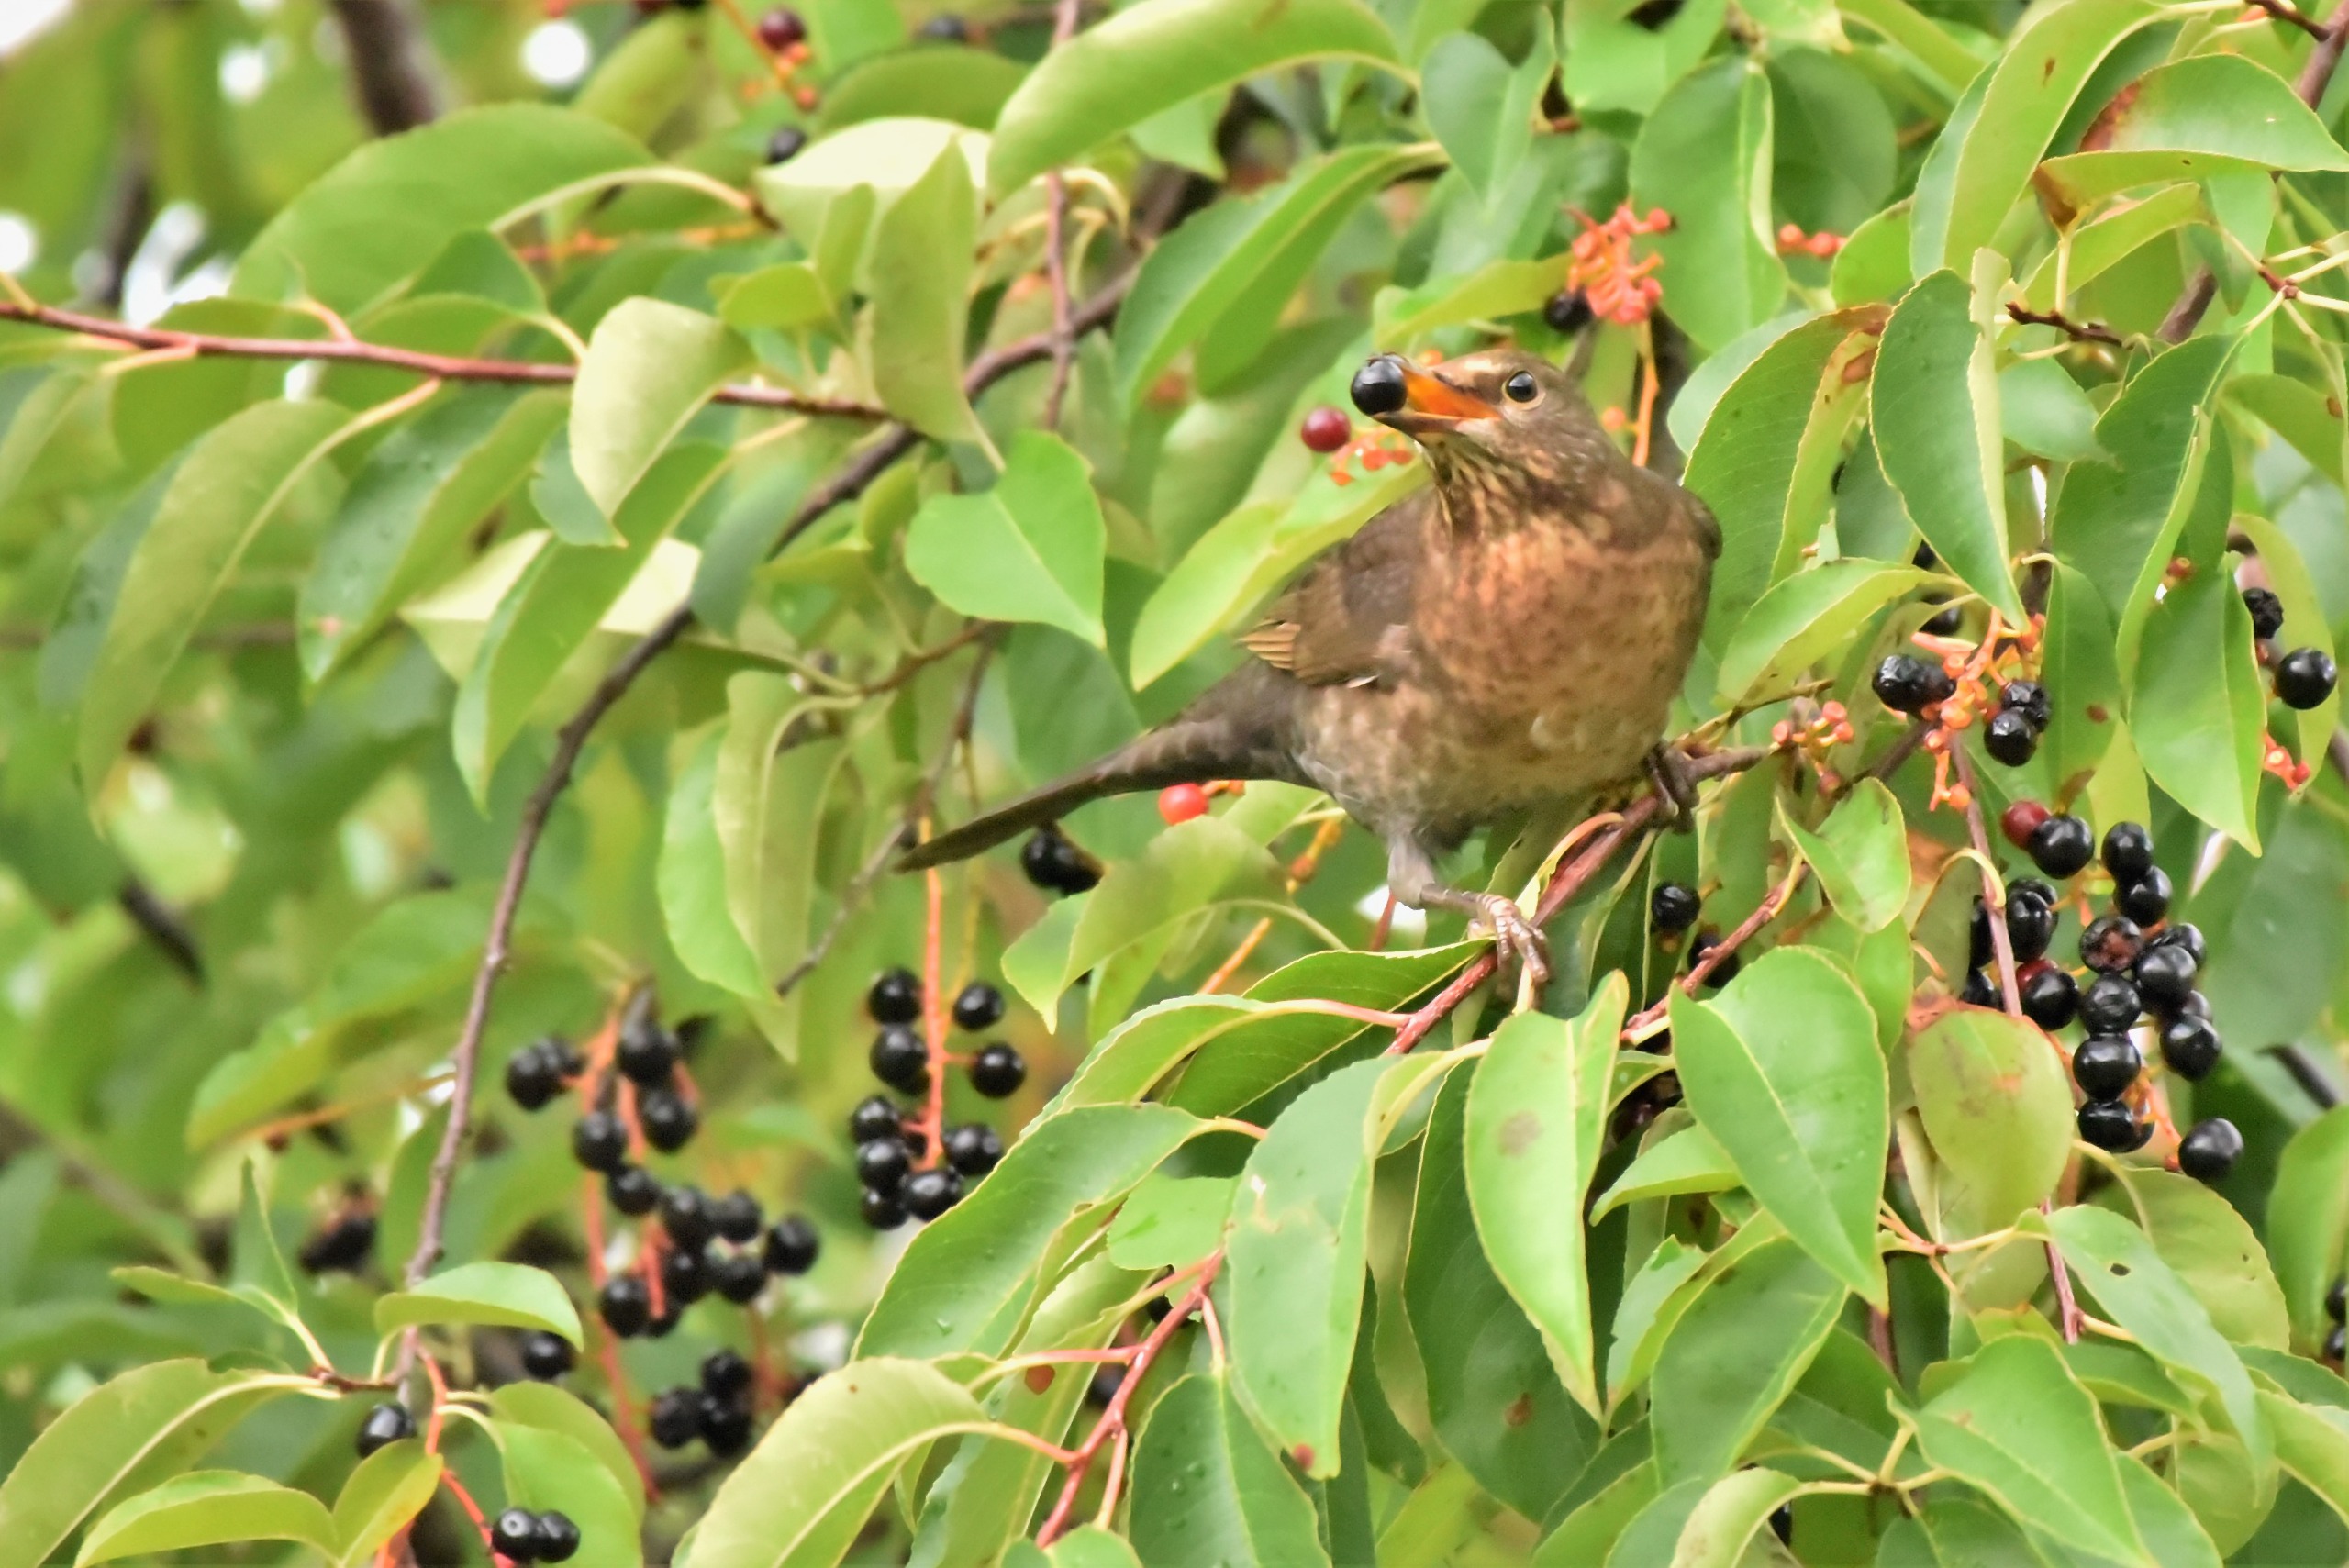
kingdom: Animalia
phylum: Chordata
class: Aves
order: Passeriformes
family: Turdidae
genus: Turdus
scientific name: Turdus merula
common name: Solsort
